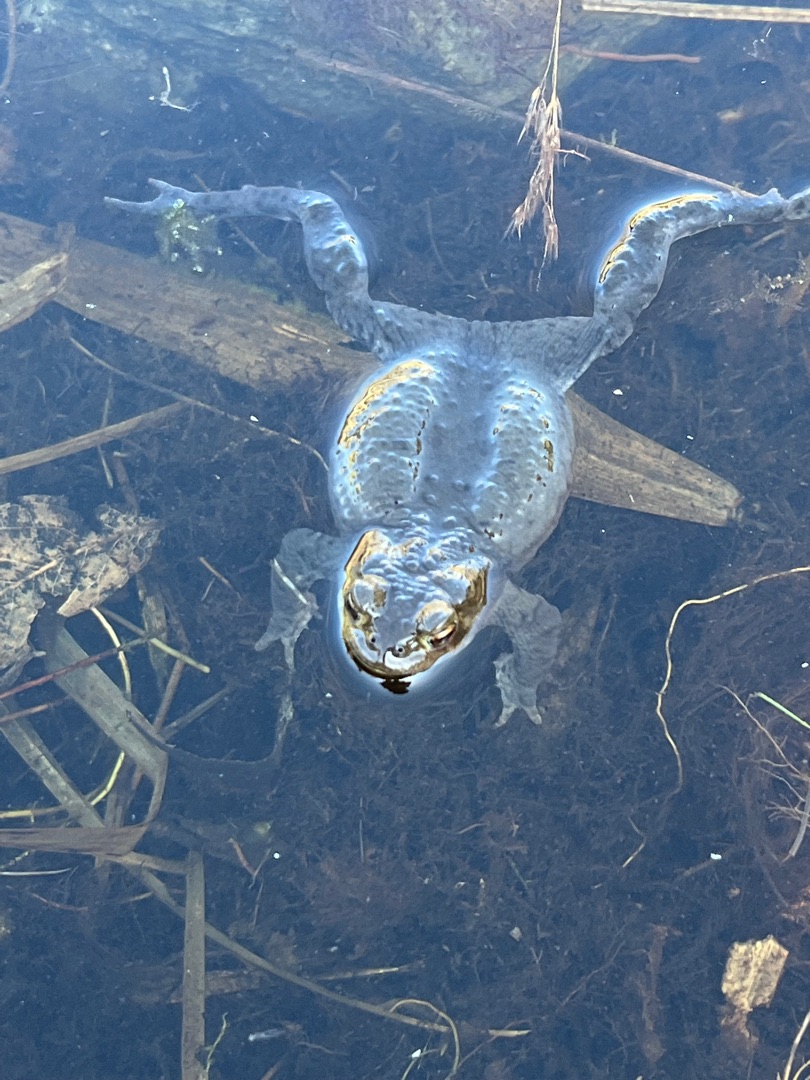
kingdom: Animalia
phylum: Chordata
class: Amphibia
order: Anura
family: Bufonidae
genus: Bufo
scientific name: Bufo bufo
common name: Skrubtudse
